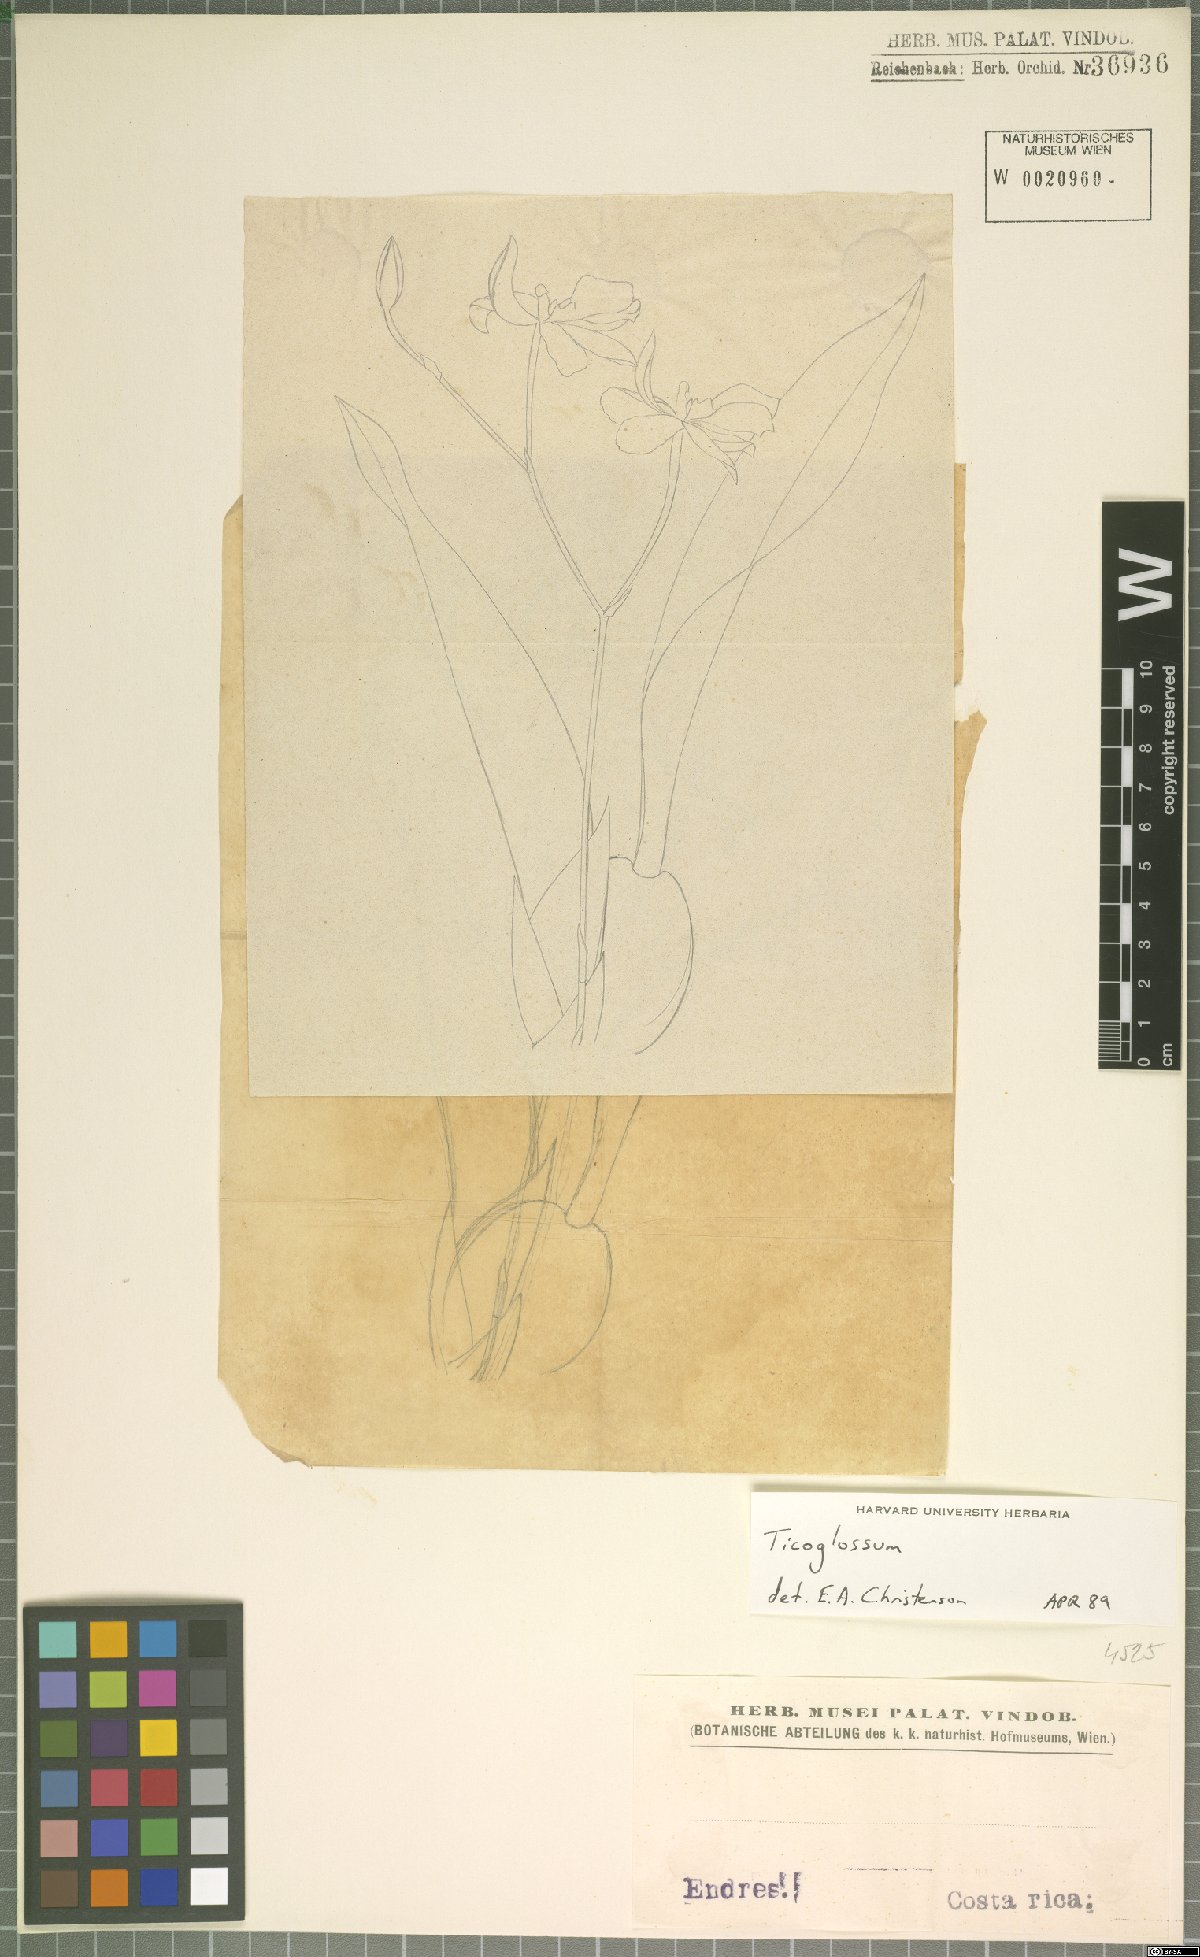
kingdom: Plantae
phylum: Tracheophyta
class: Liliopsida
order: Asparagales
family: Orchidaceae
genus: Rossioglossum
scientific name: Rossioglossum
